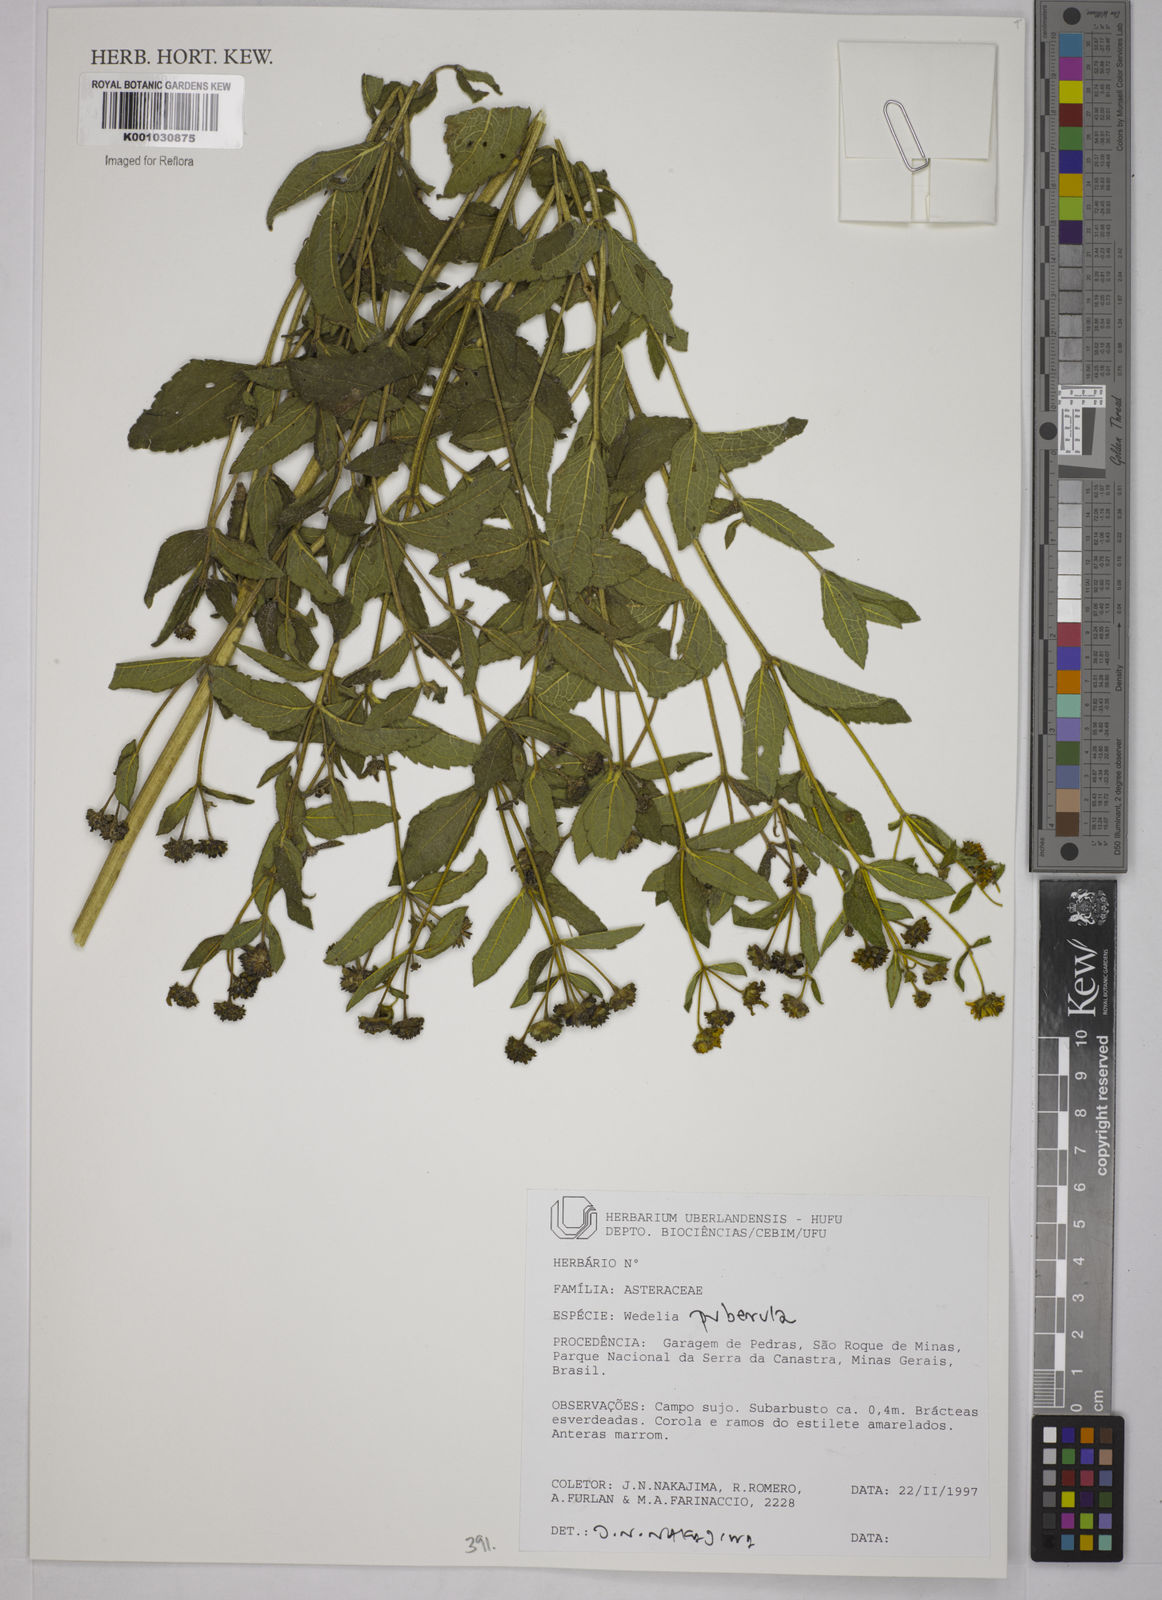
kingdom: Plantae
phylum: Tracheophyta
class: Magnoliopsida
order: Asterales
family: Asteraceae
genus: Wedelia
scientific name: Wedelia puberula
